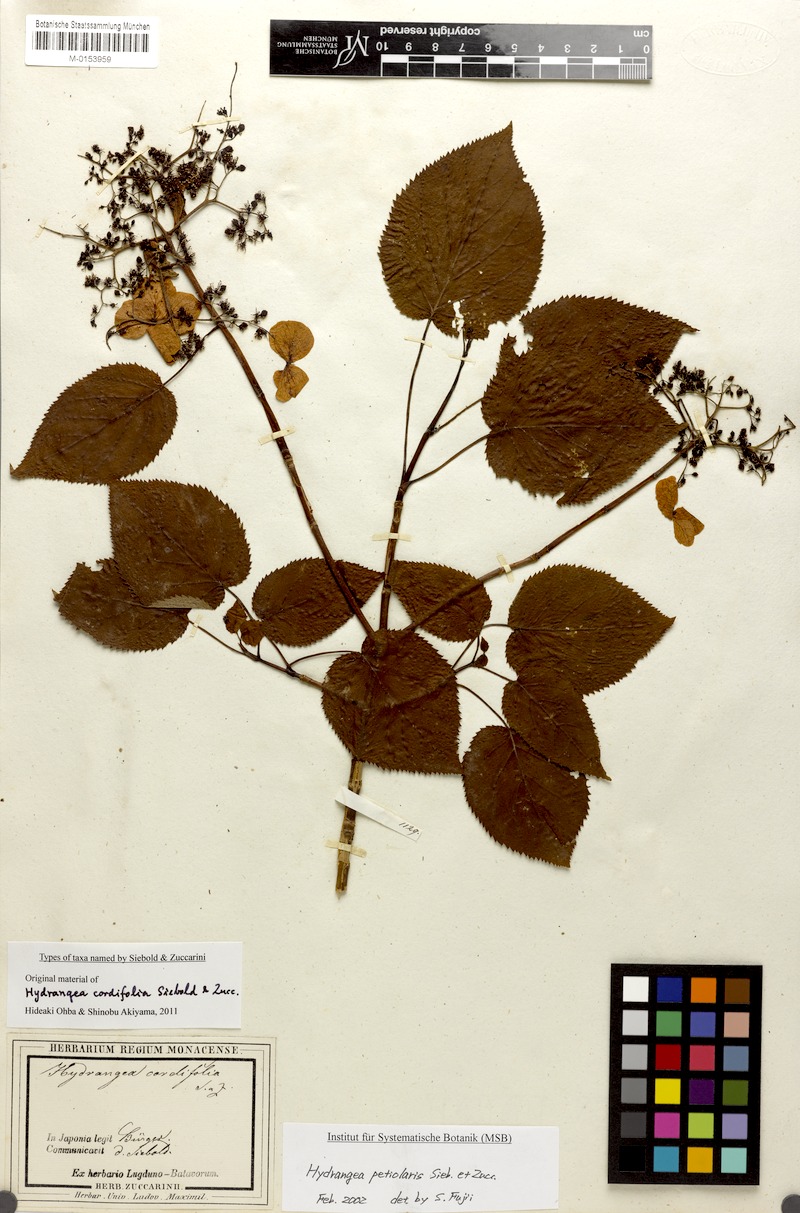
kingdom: Plantae
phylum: Tracheophyta
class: Magnoliopsida
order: Cornales
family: Hydrangeaceae
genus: Hydrangea
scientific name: Hydrangea petiolaris
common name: Japanese climbing hydrangea
